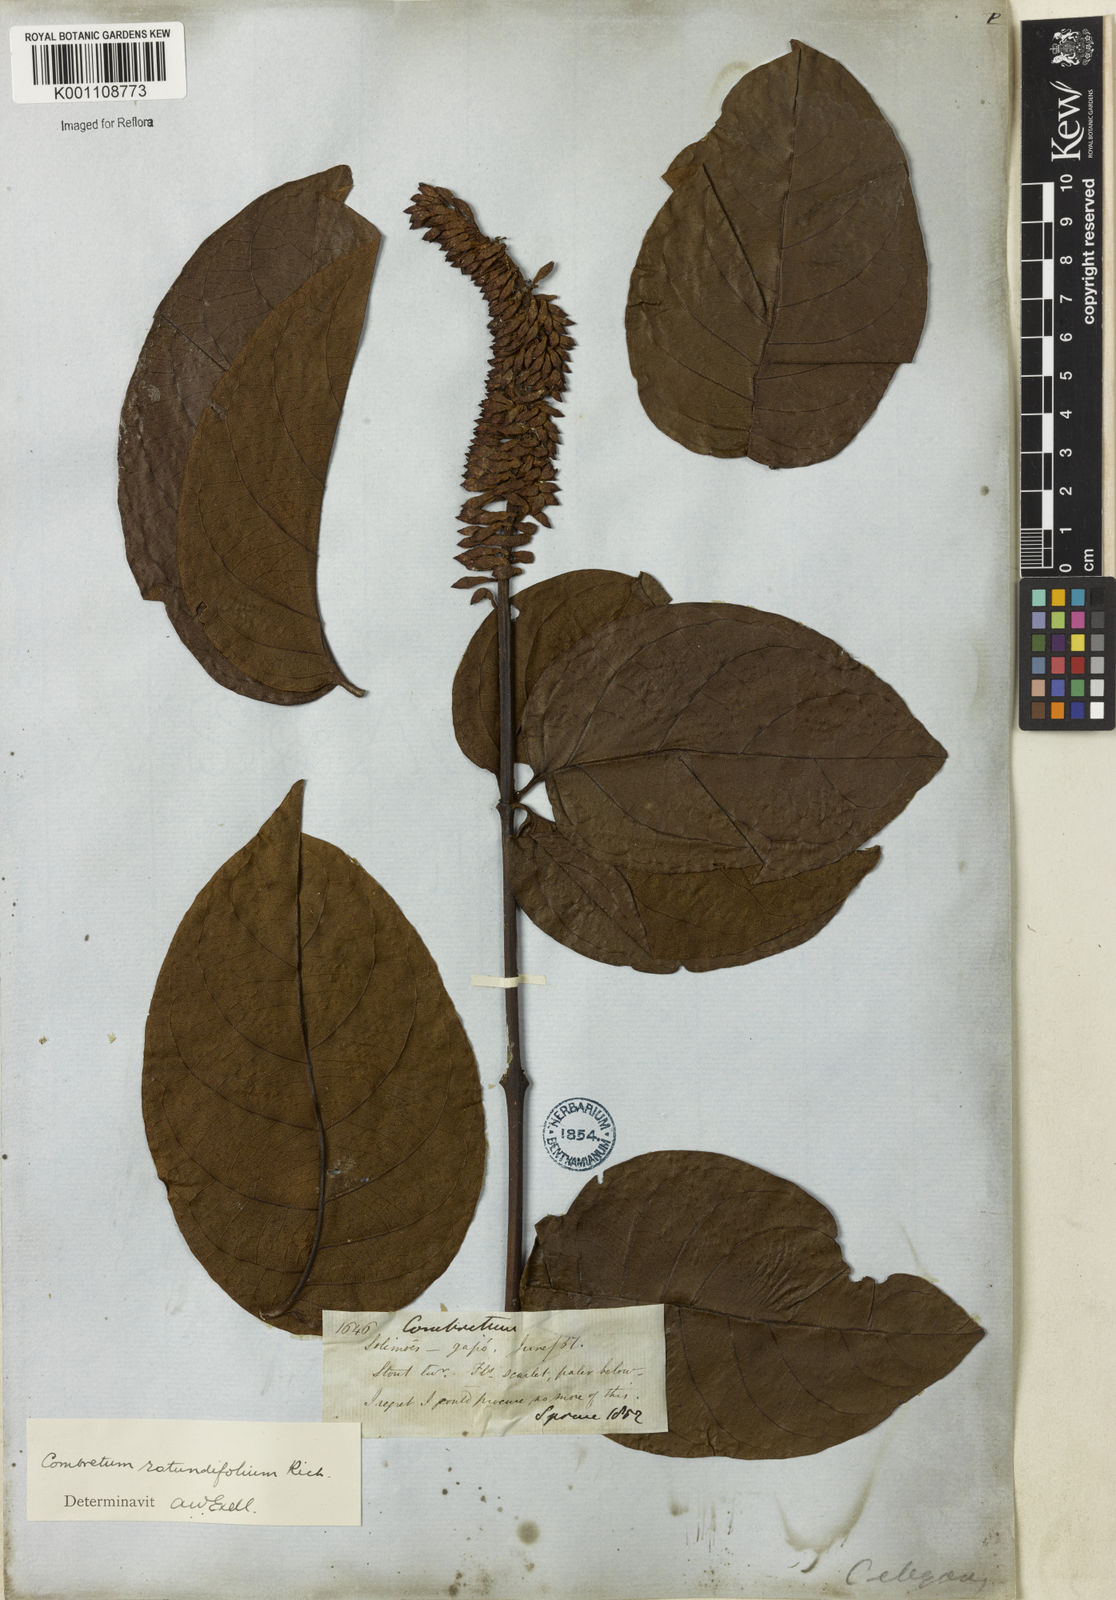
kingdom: Plantae
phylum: Tracheophyta
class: Magnoliopsida
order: Myrtales
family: Combretaceae
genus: Combretum
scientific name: Combretum rotundifolium
